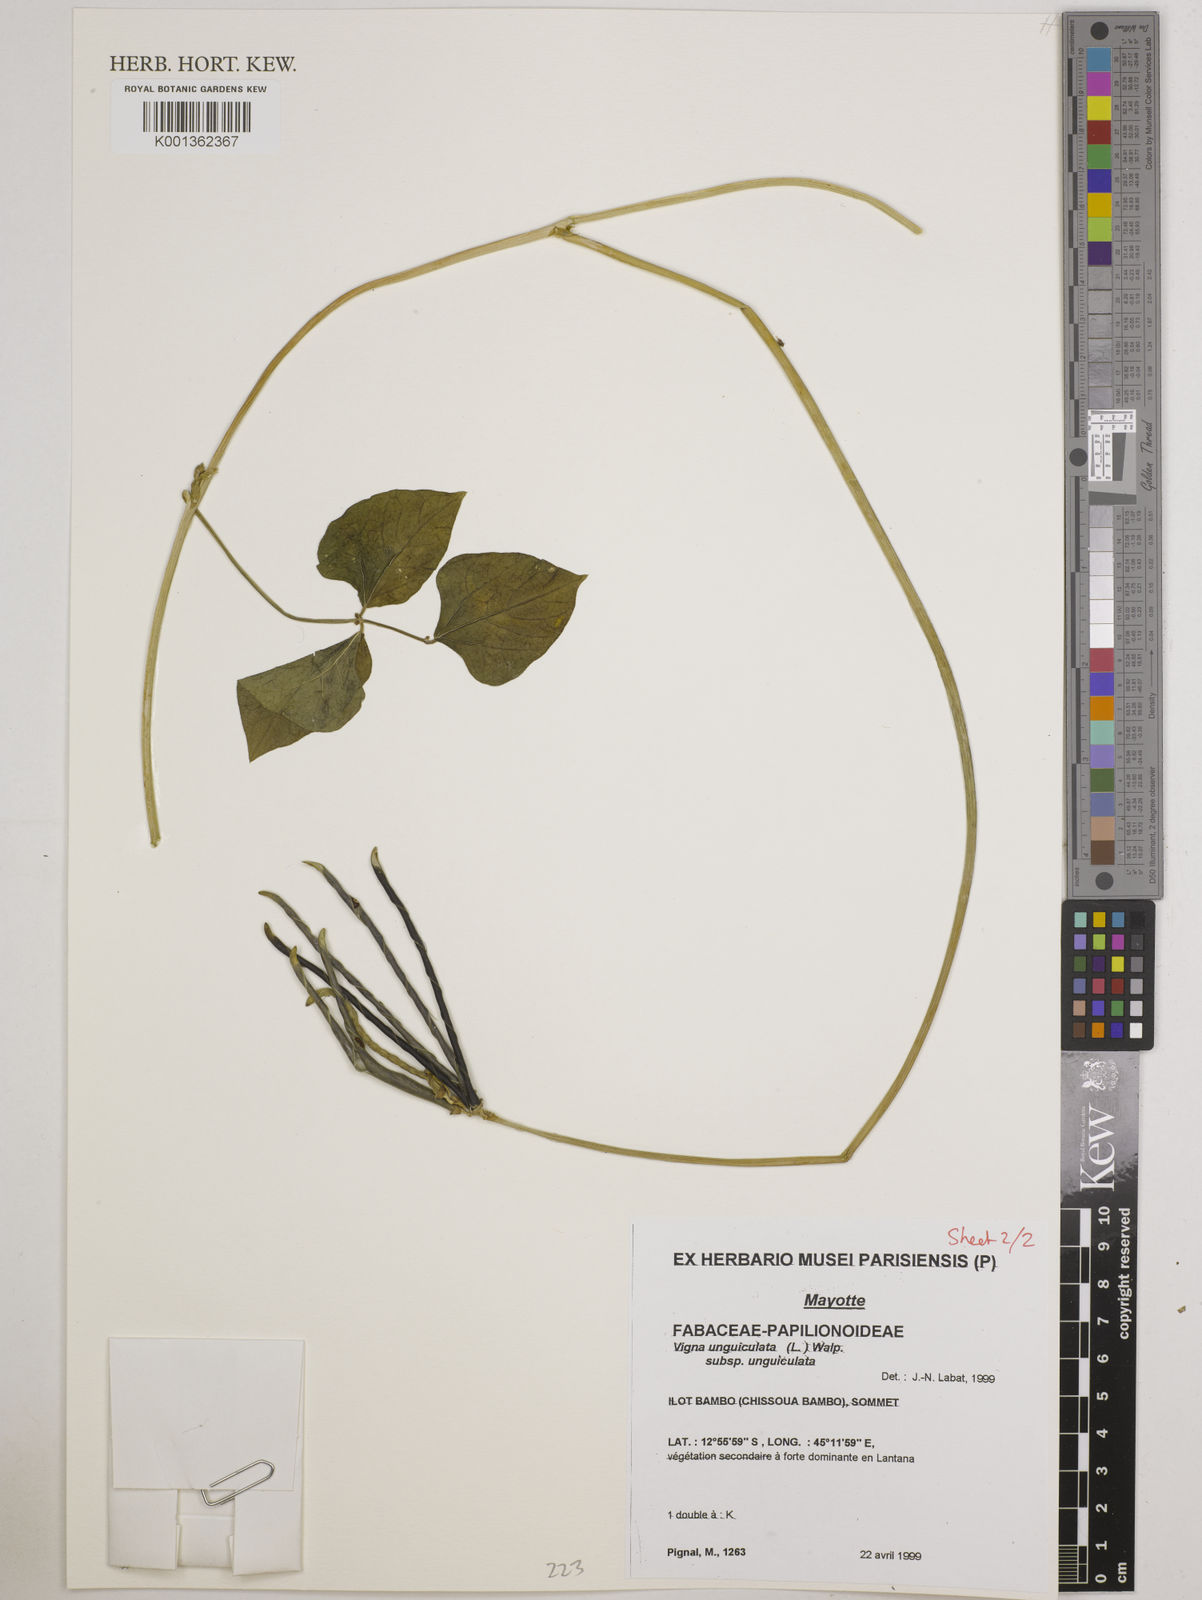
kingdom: Plantae
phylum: Tracheophyta
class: Magnoliopsida
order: Fabales
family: Fabaceae
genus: Vigna
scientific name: Vigna
